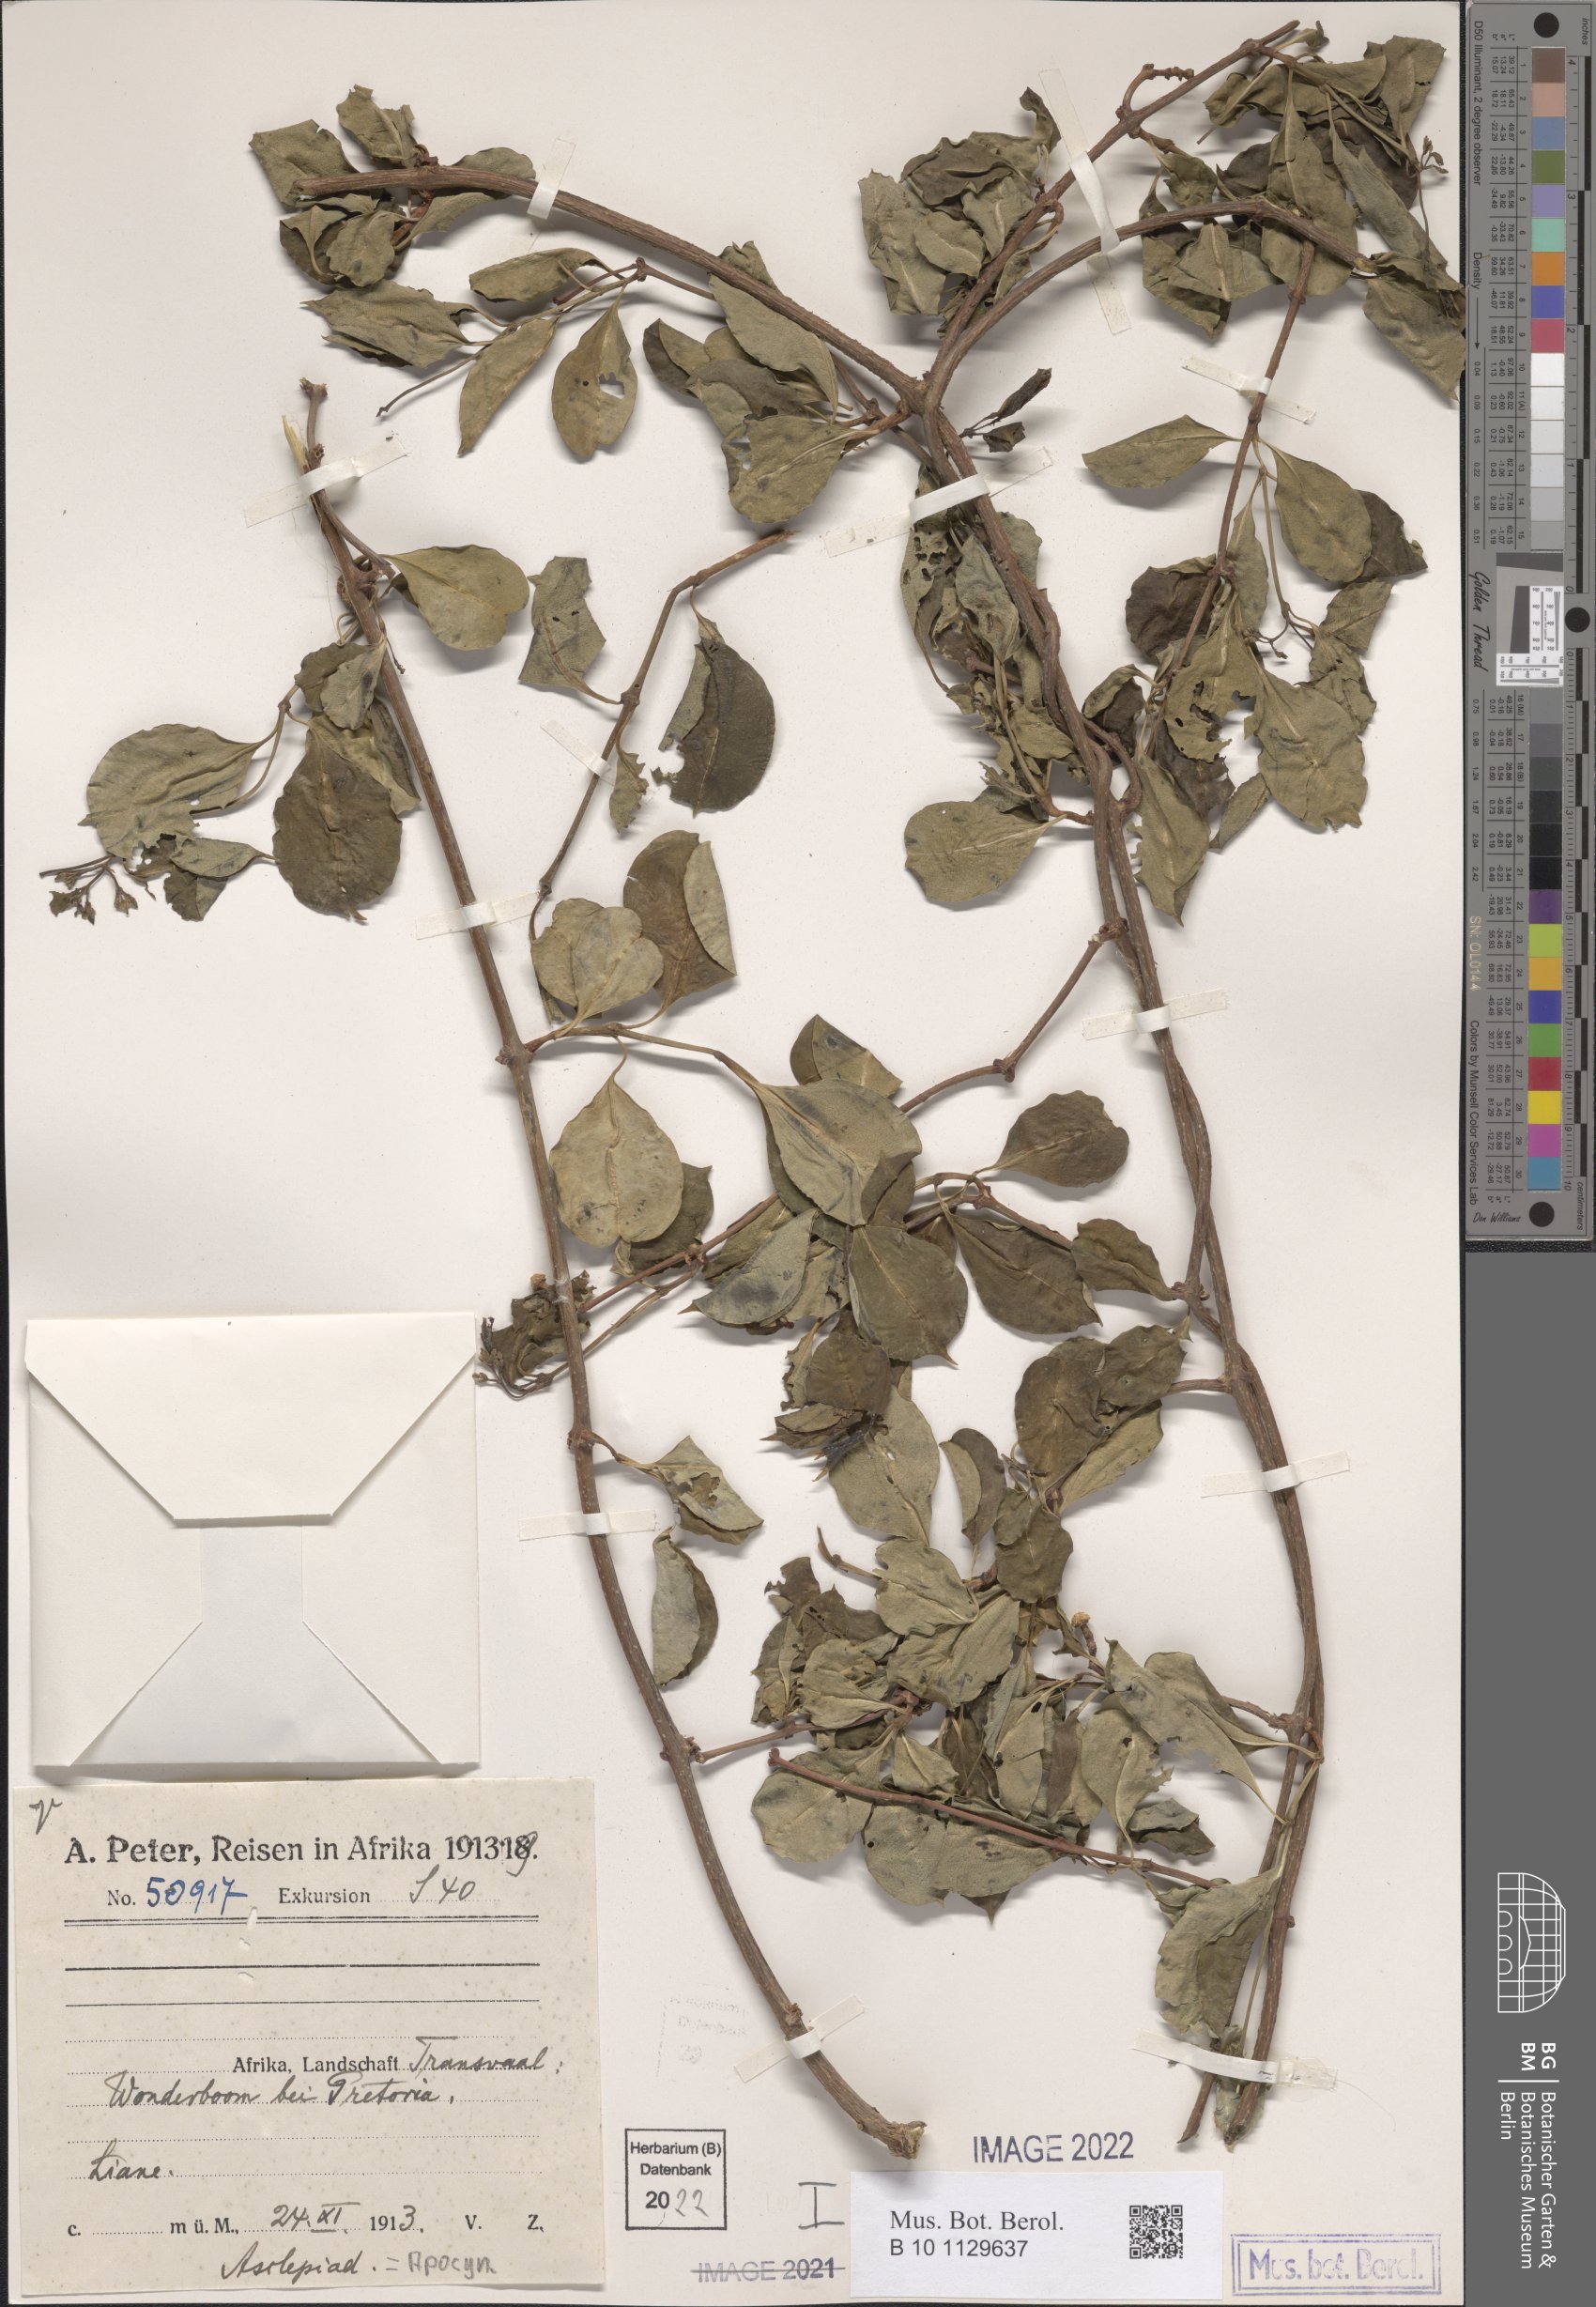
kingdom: Plantae
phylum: Tracheophyta
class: Magnoliopsida
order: Gentianales
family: Apocynaceae
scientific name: Apocynaceae
